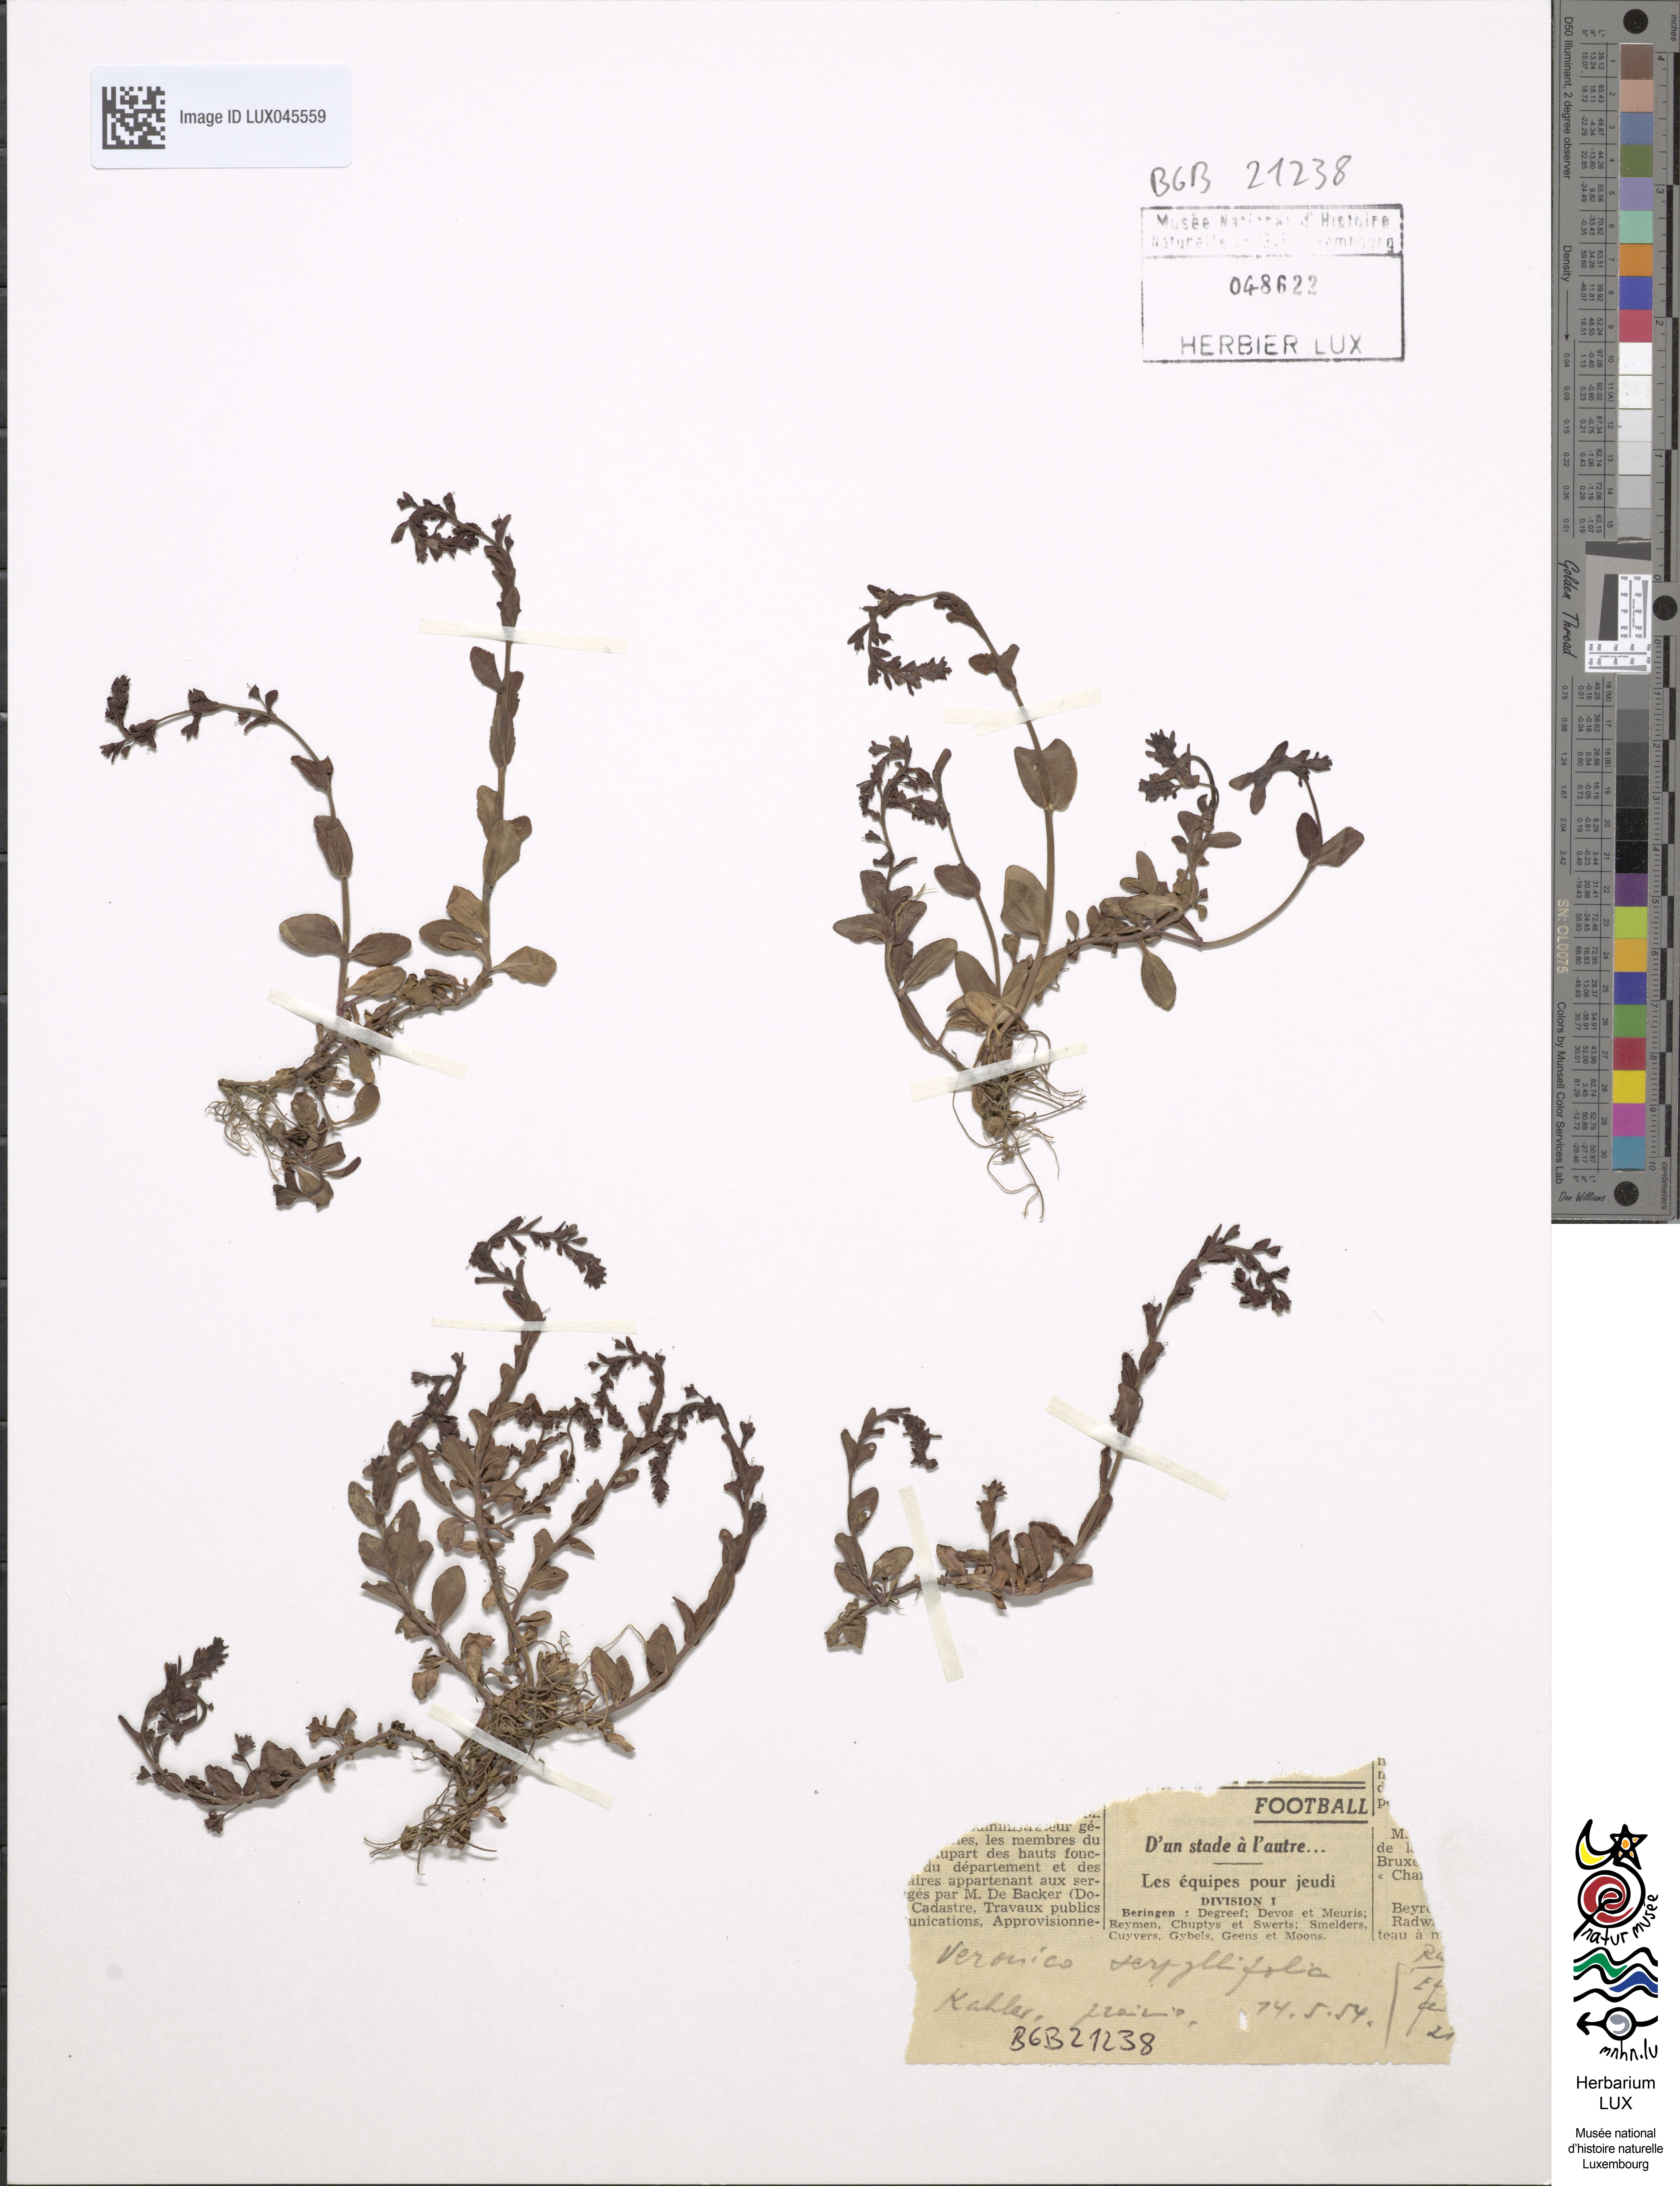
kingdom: Plantae
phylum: Tracheophyta
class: Magnoliopsida
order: Lamiales
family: Plantaginaceae
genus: Veronica
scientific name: Veronica serpyllifolia
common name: Thyme-leaved speedwell
